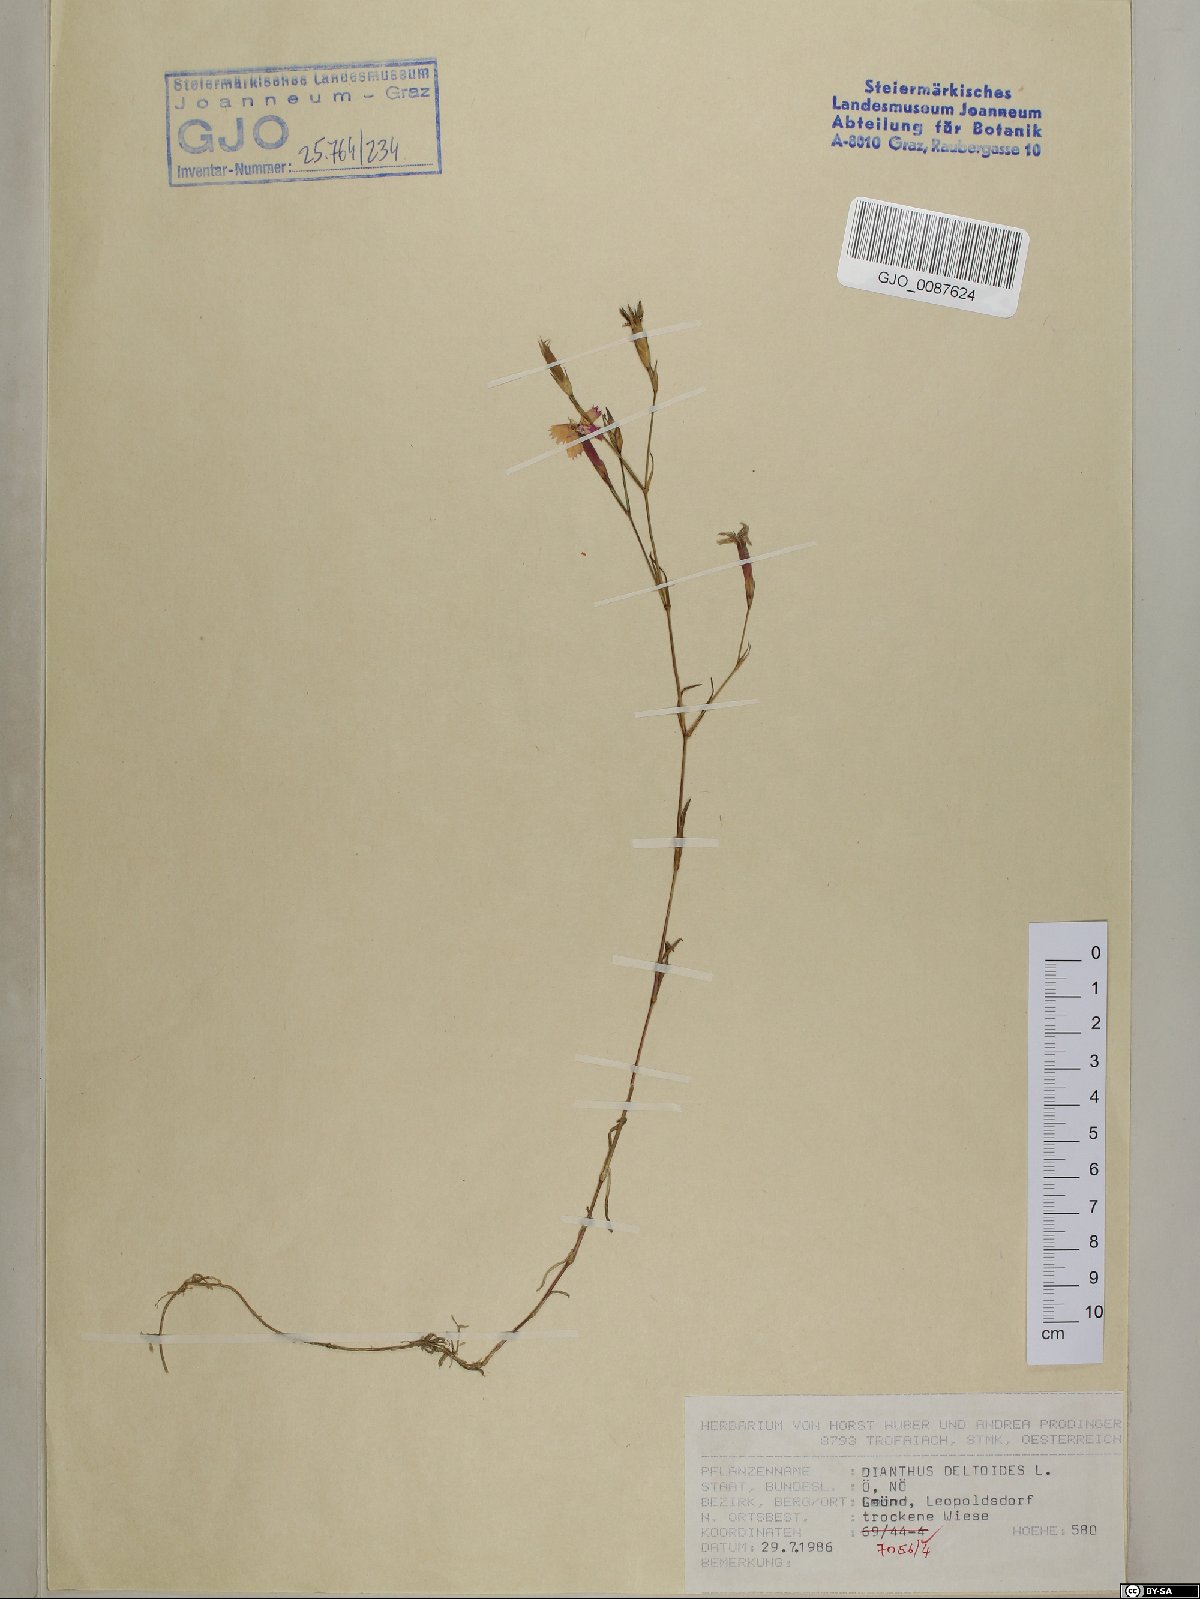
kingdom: Plantae
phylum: Tracheophyta
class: Magnoliopsida
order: Caryophyllales
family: Caryophyllaceae
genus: Dianthus
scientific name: Dianthus deltoides
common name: Maiden pink
